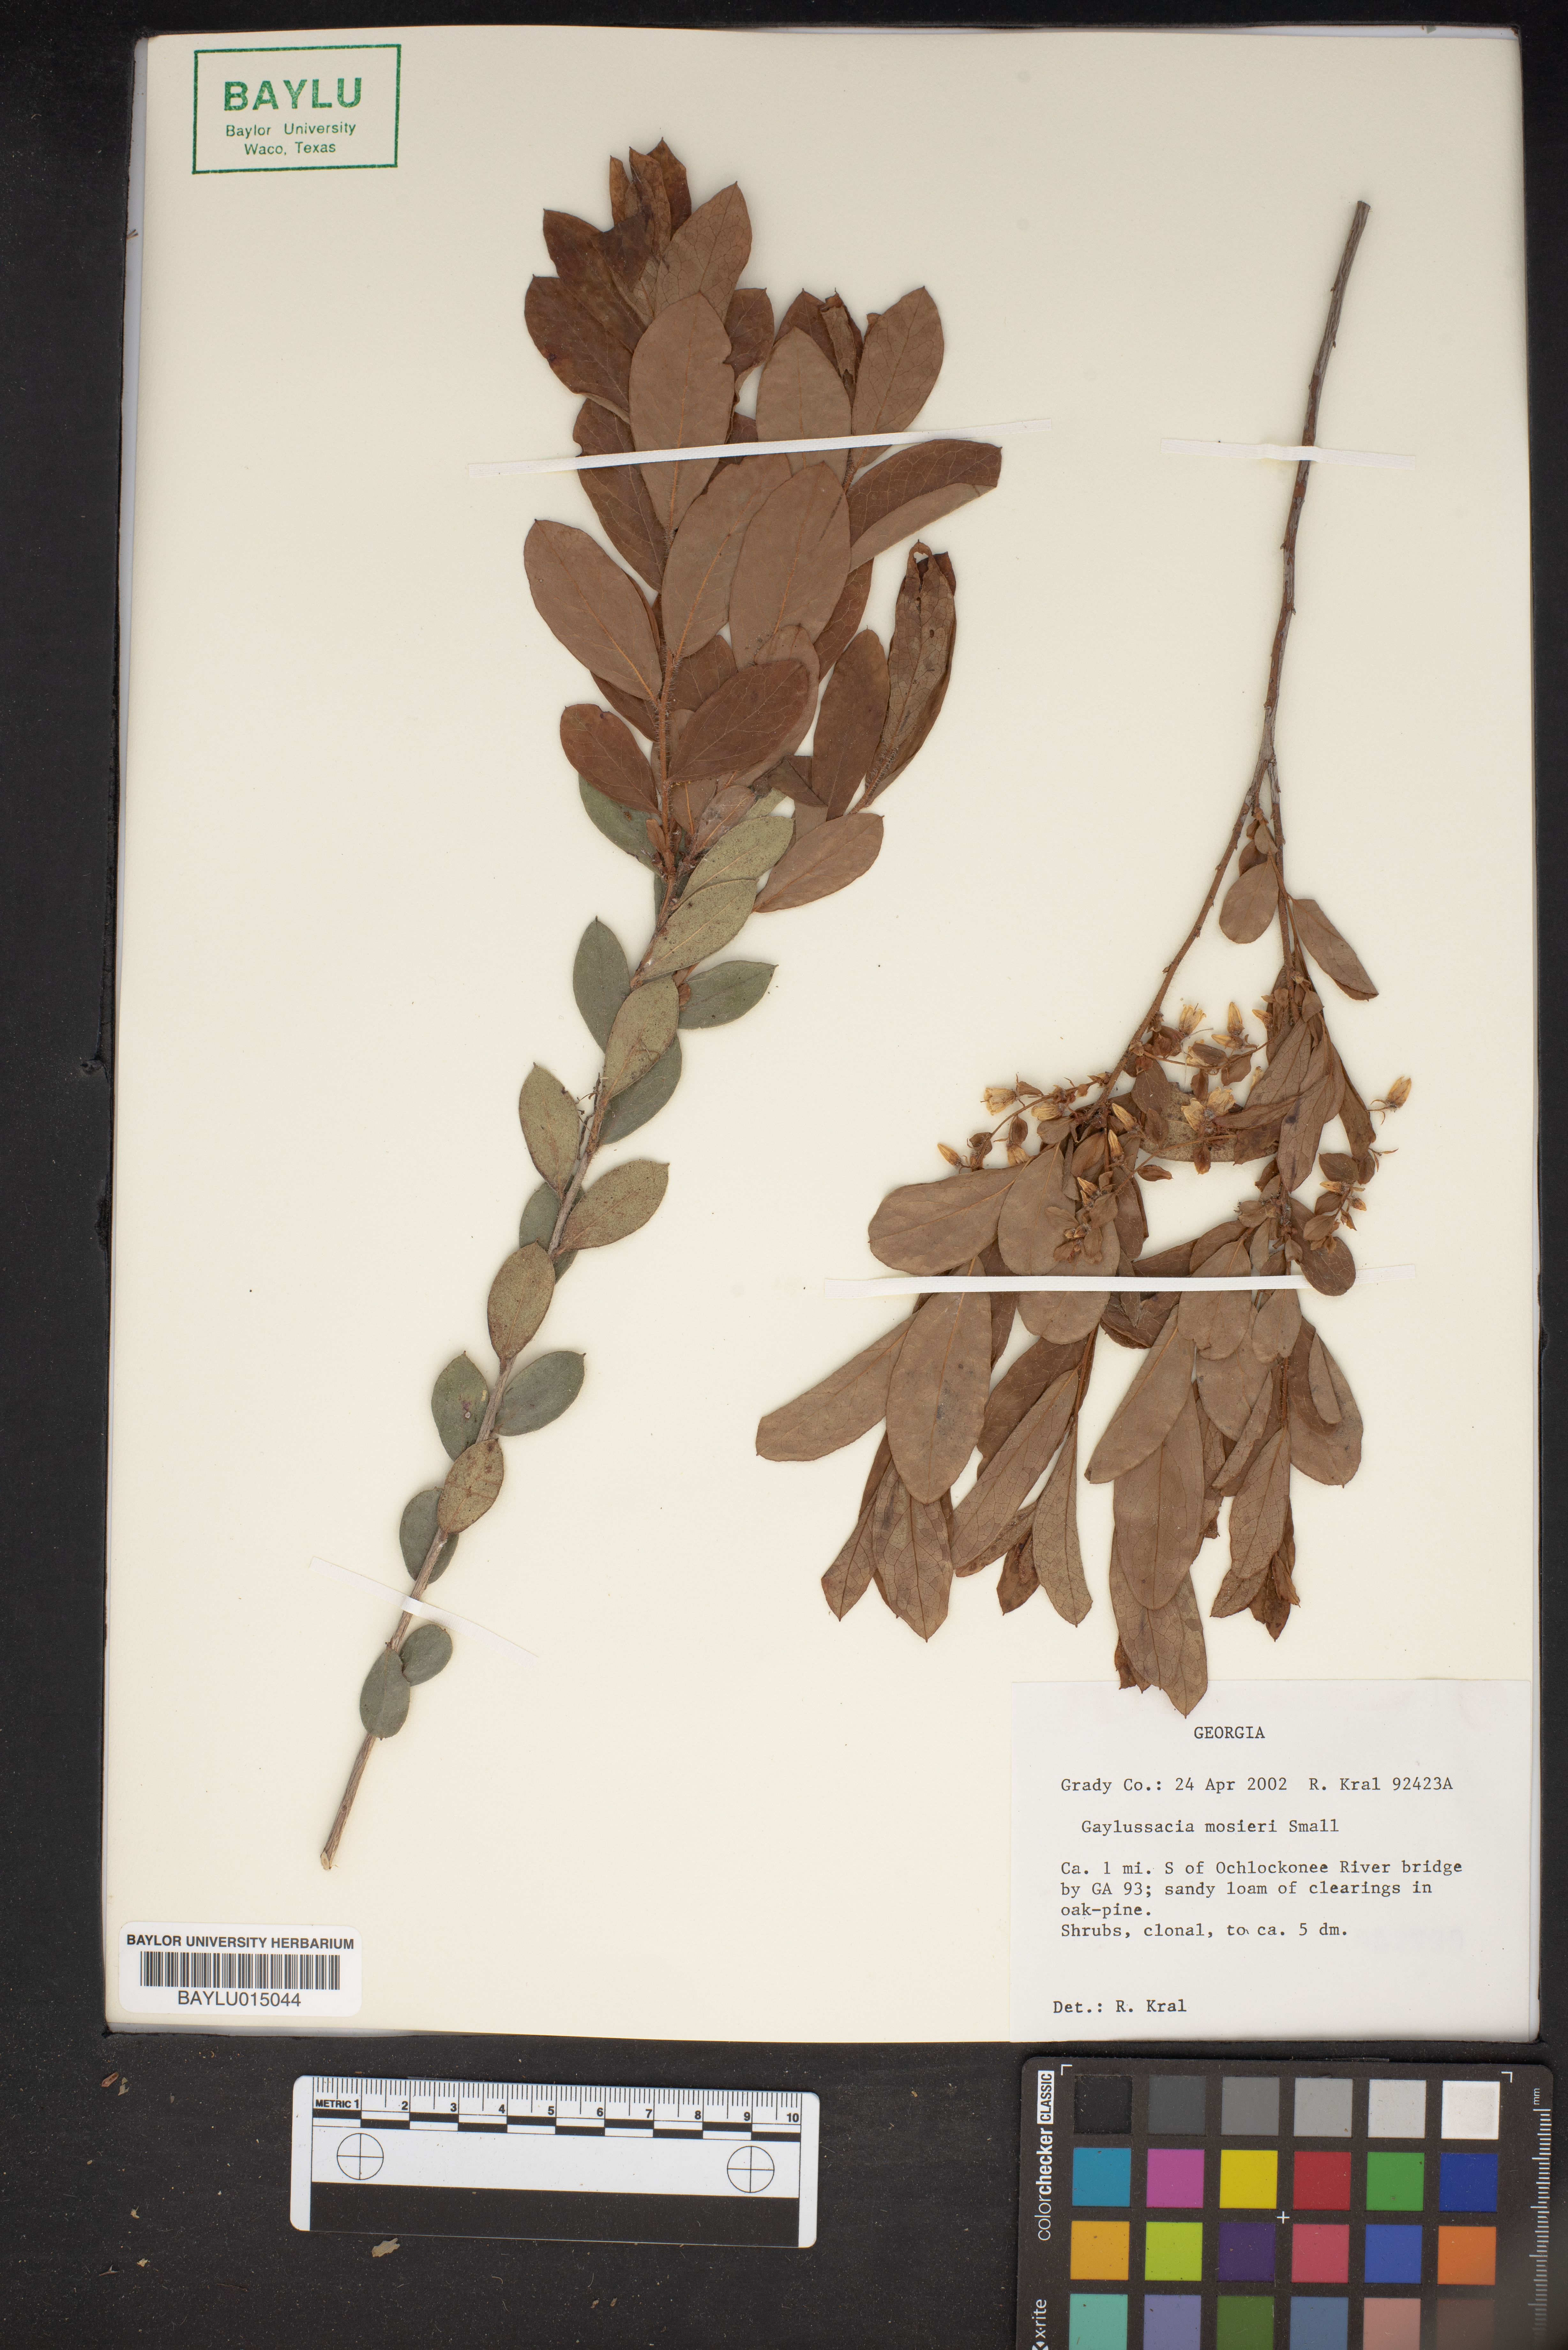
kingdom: Plantae
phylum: Tracheophyta
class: Magnoliopsida
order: Ericales
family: Ericaceae
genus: Gaylussacia
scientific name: Gaylussacia mosieri
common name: Hirsute huckleberry
